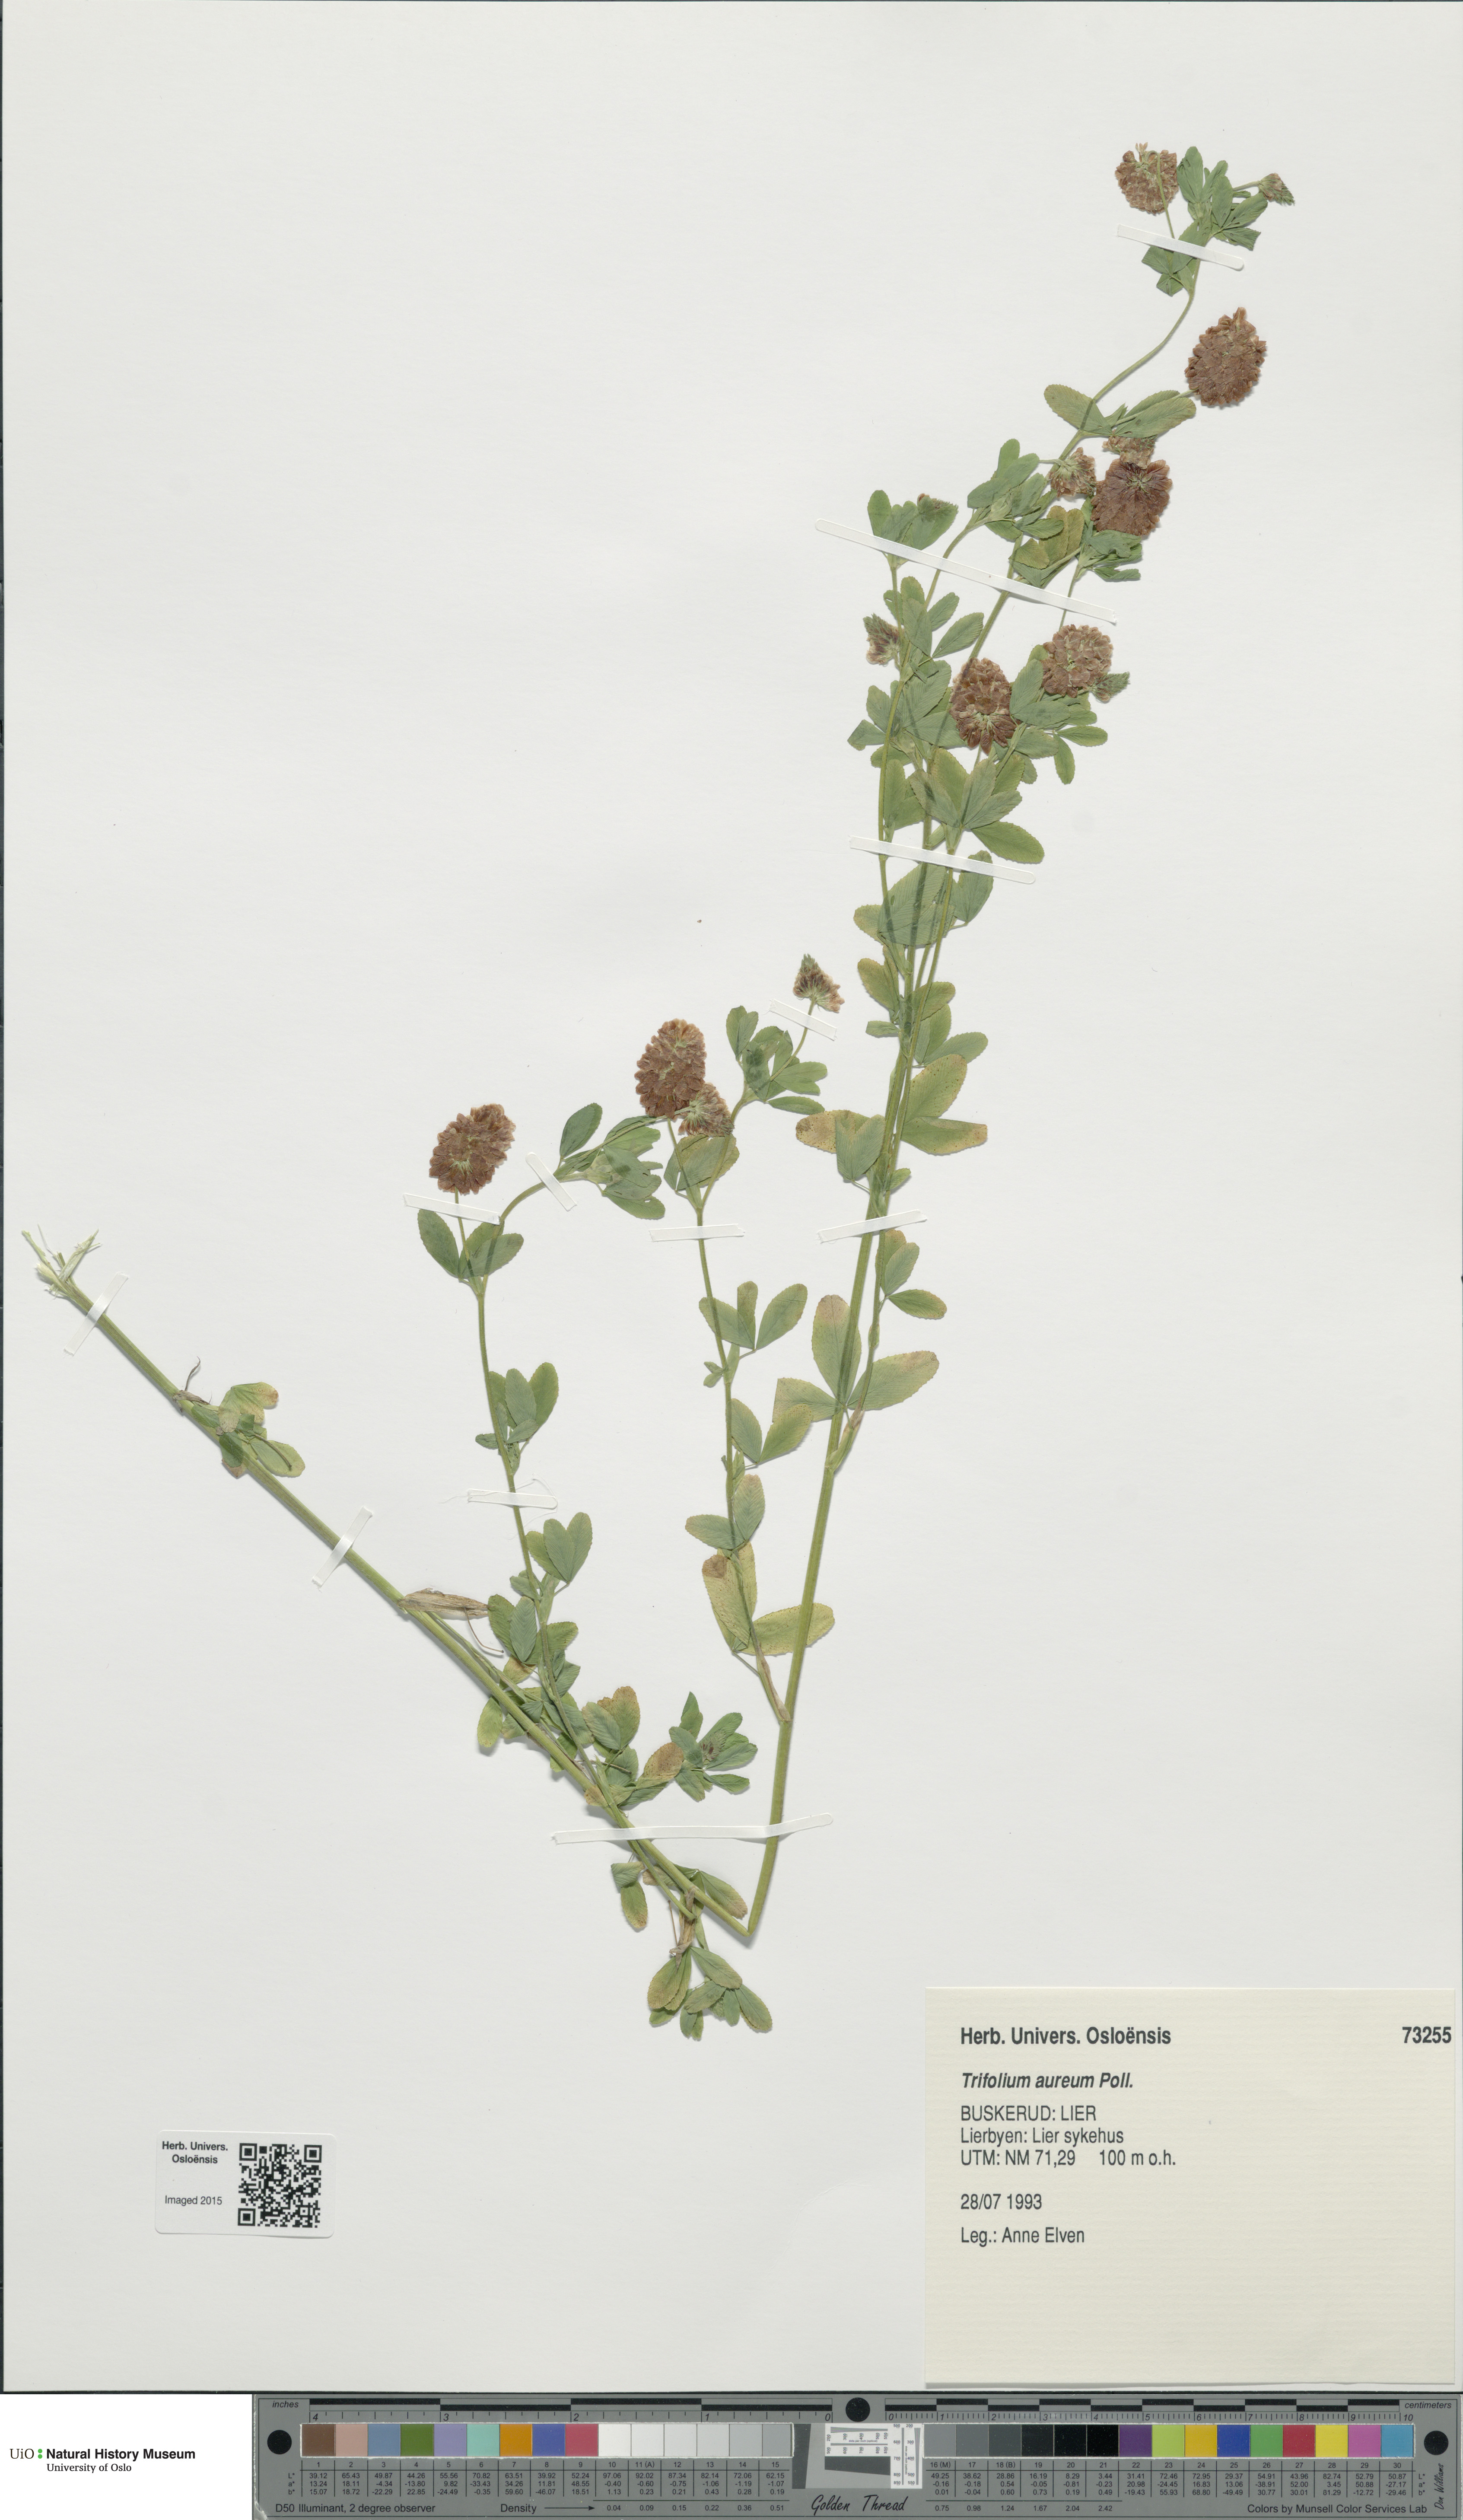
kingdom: Plantae
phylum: Tracheophyta
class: Magnoliopsida
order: Fabales
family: Fabaceae
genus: Trifolium
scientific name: Trifolium aureum
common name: Golden clover
